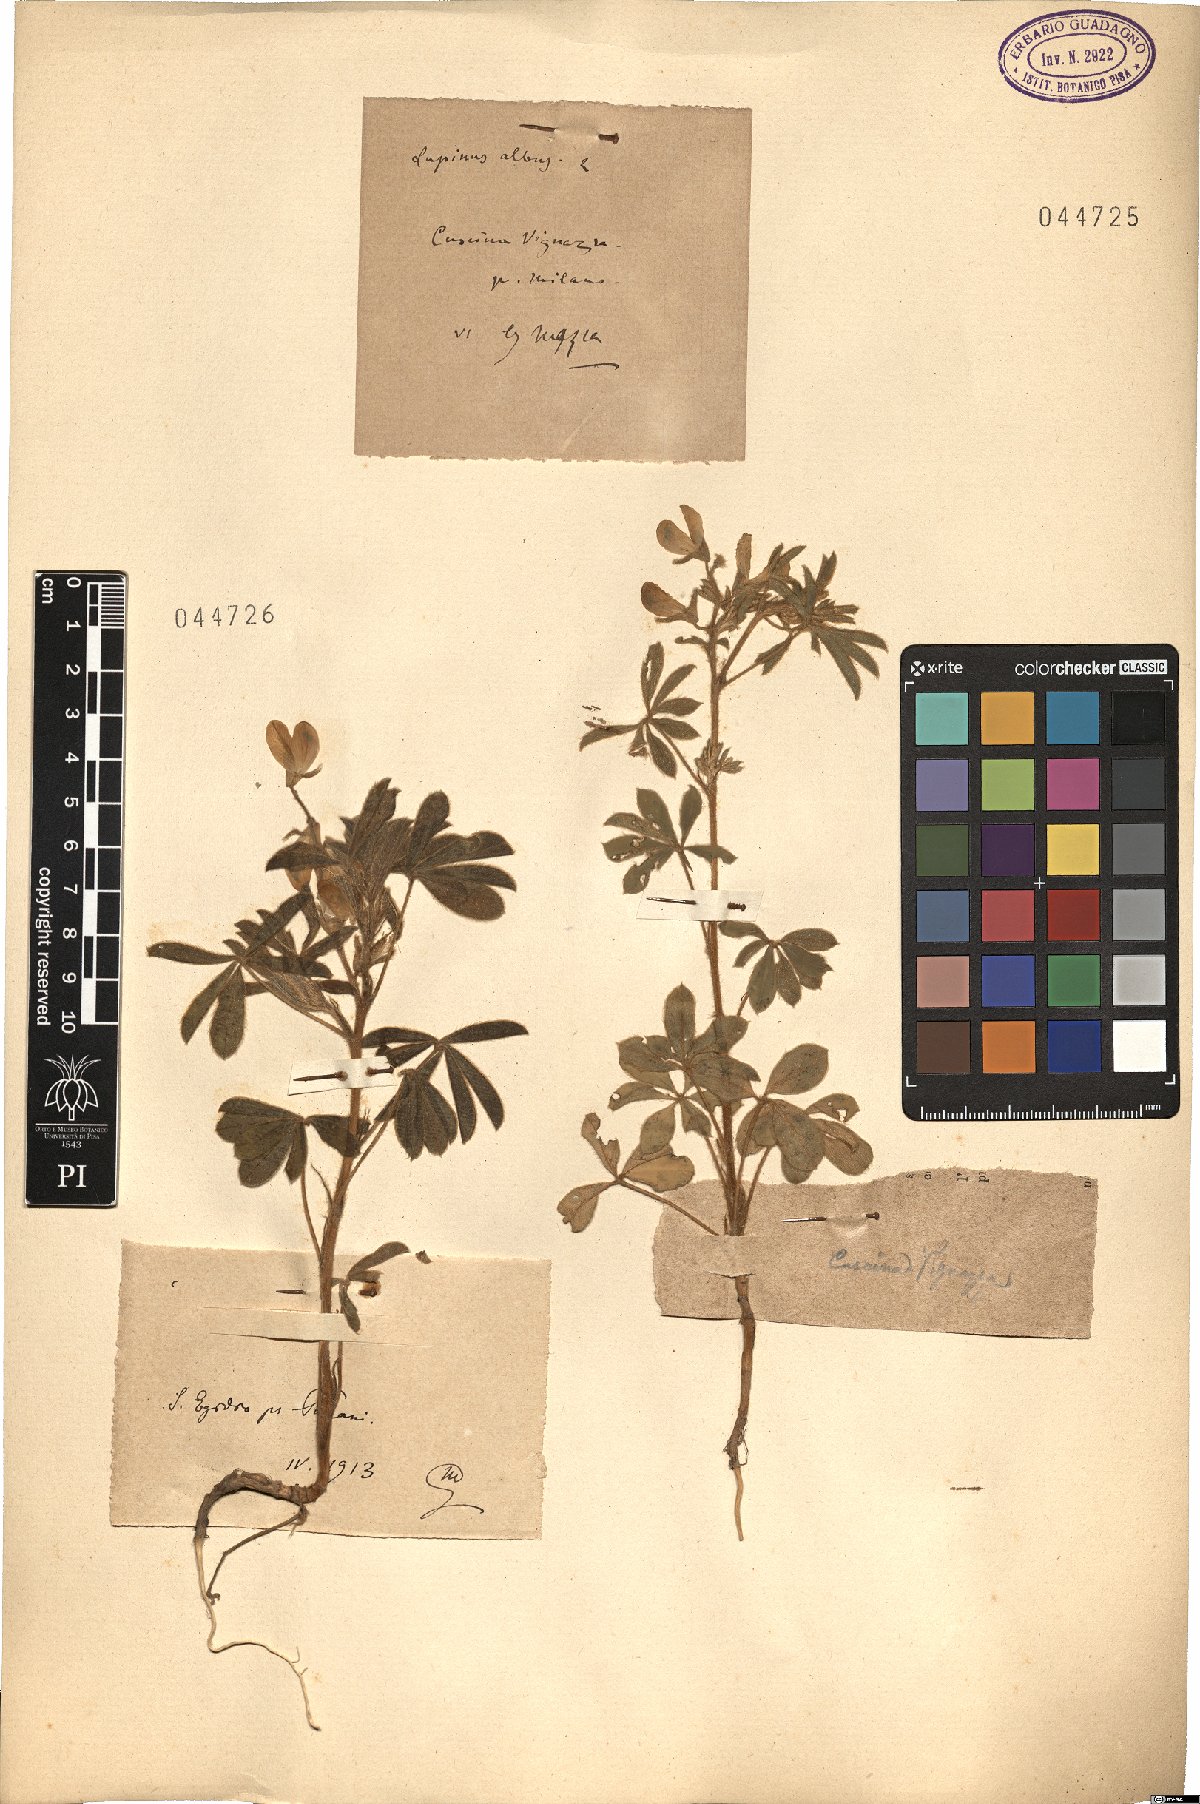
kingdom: Plantae
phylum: Tracheophyta
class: Magnoliopsida
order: Fabales
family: Fabaceae
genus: Lupinus
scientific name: Lupinus albus
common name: White lupin
